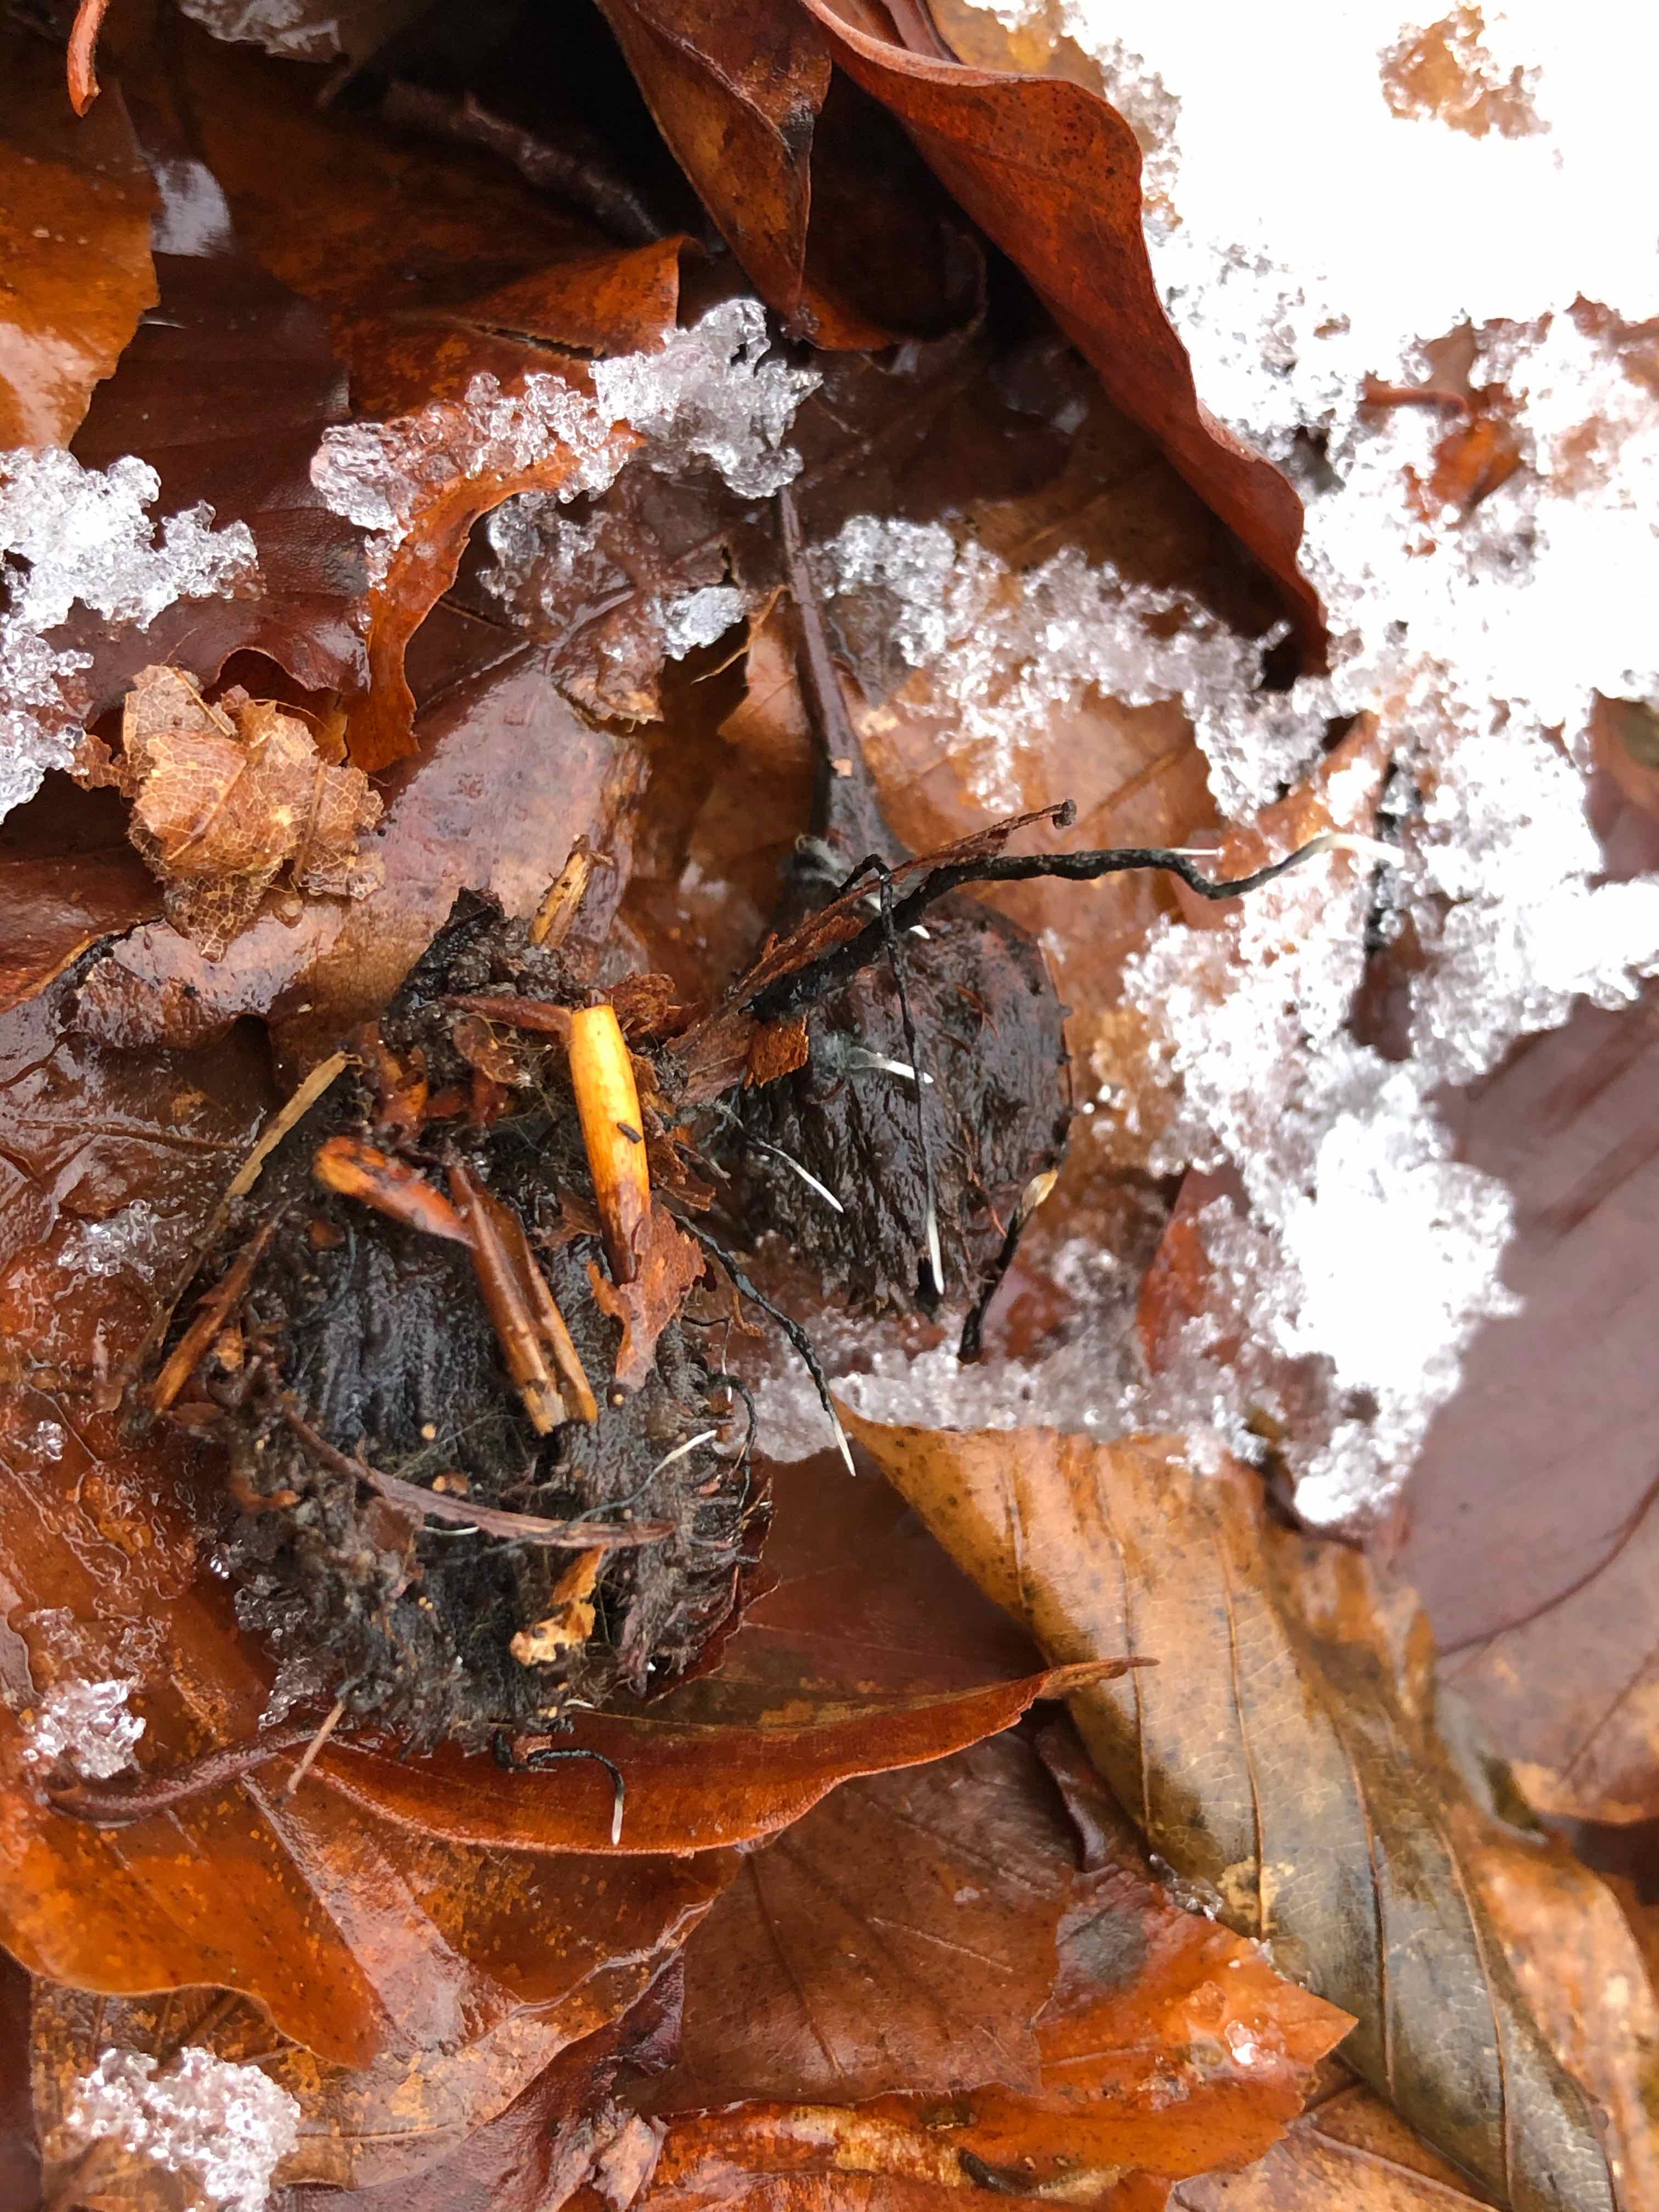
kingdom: Fungi
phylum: Ascomycota
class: Sordariomycetes
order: Xylariales
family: Xylariaceae
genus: Xylaria
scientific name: Xylaria carpophila
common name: bogskål-stødsvamp
